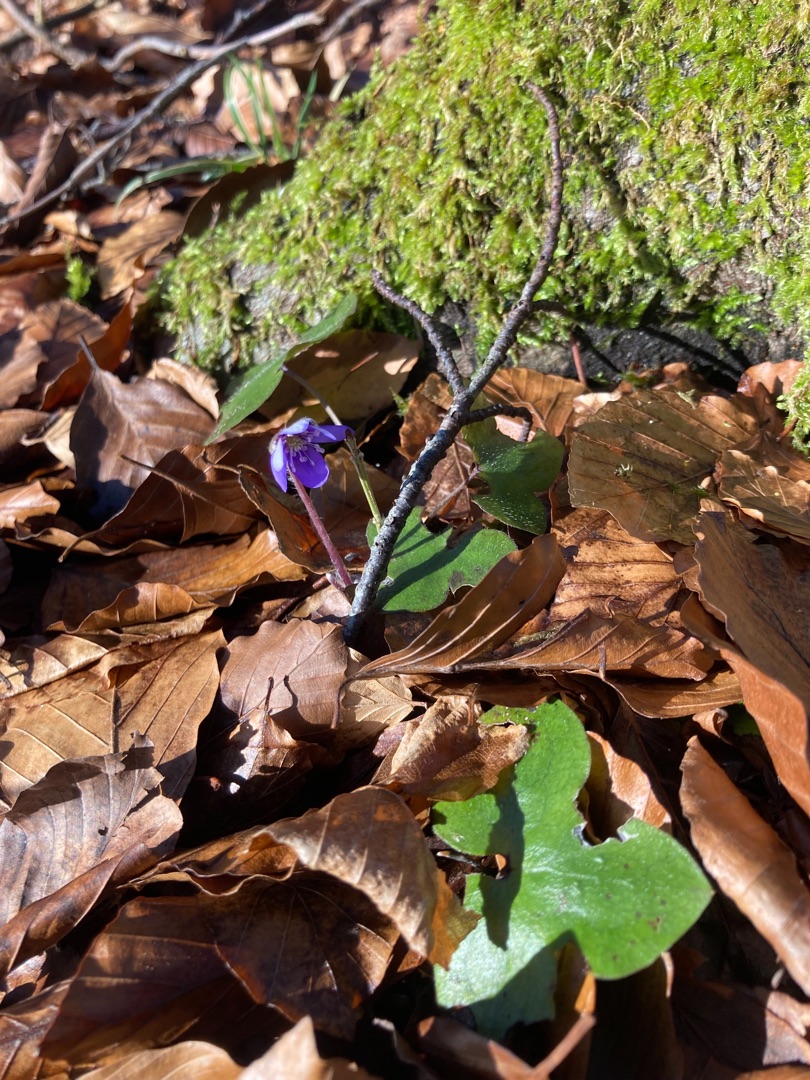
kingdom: Plantae
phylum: Tracheophyta
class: Magnoliopsida
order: Ranunculales
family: Ranunculaceae
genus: Hepatica
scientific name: Hepatica nobilis
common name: Blå anemone
